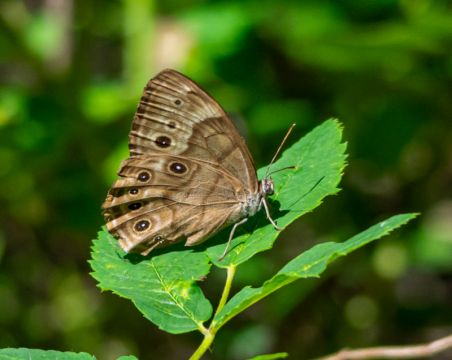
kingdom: Animalia
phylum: Arthropoda
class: Insecta
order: Lepidoptera
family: Nymphalidae
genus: Lethe
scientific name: Lethe anthedon
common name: Northern Pearly-Eye
